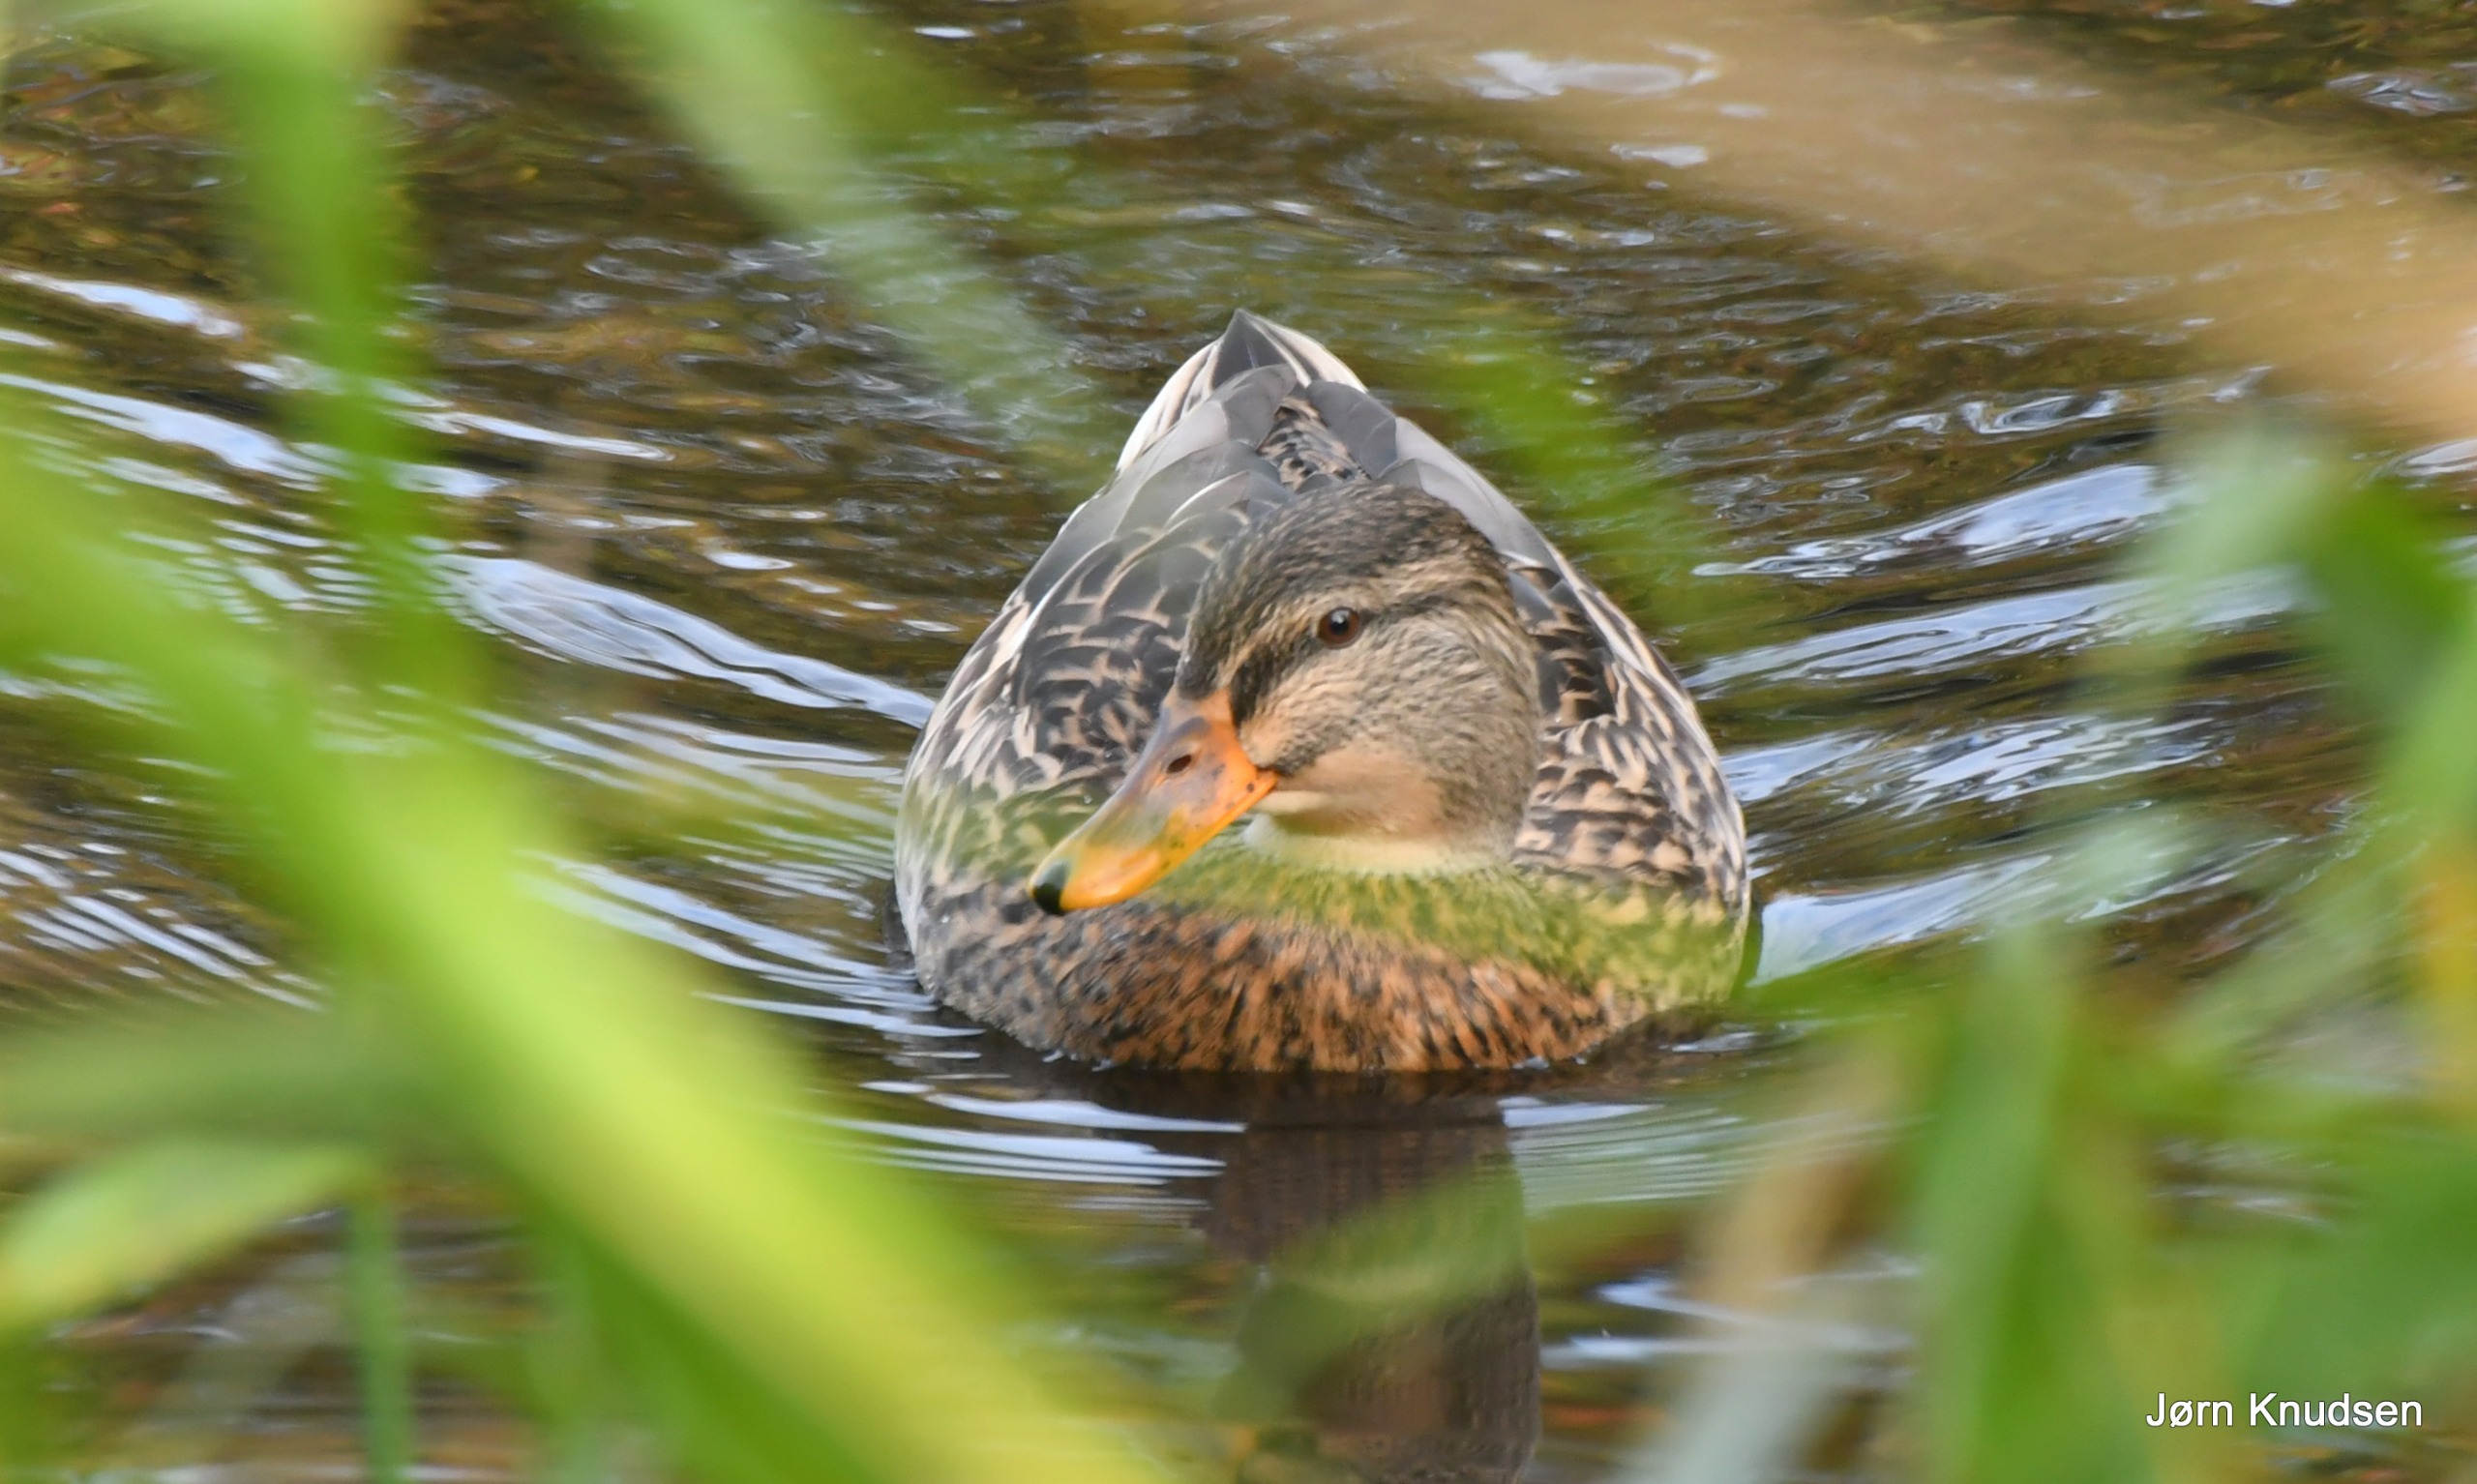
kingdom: Animalia
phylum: Chordata
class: Aves
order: Anseriformes
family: Anatidae
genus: Anas
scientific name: Anas platyrhynchos
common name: Gråand
